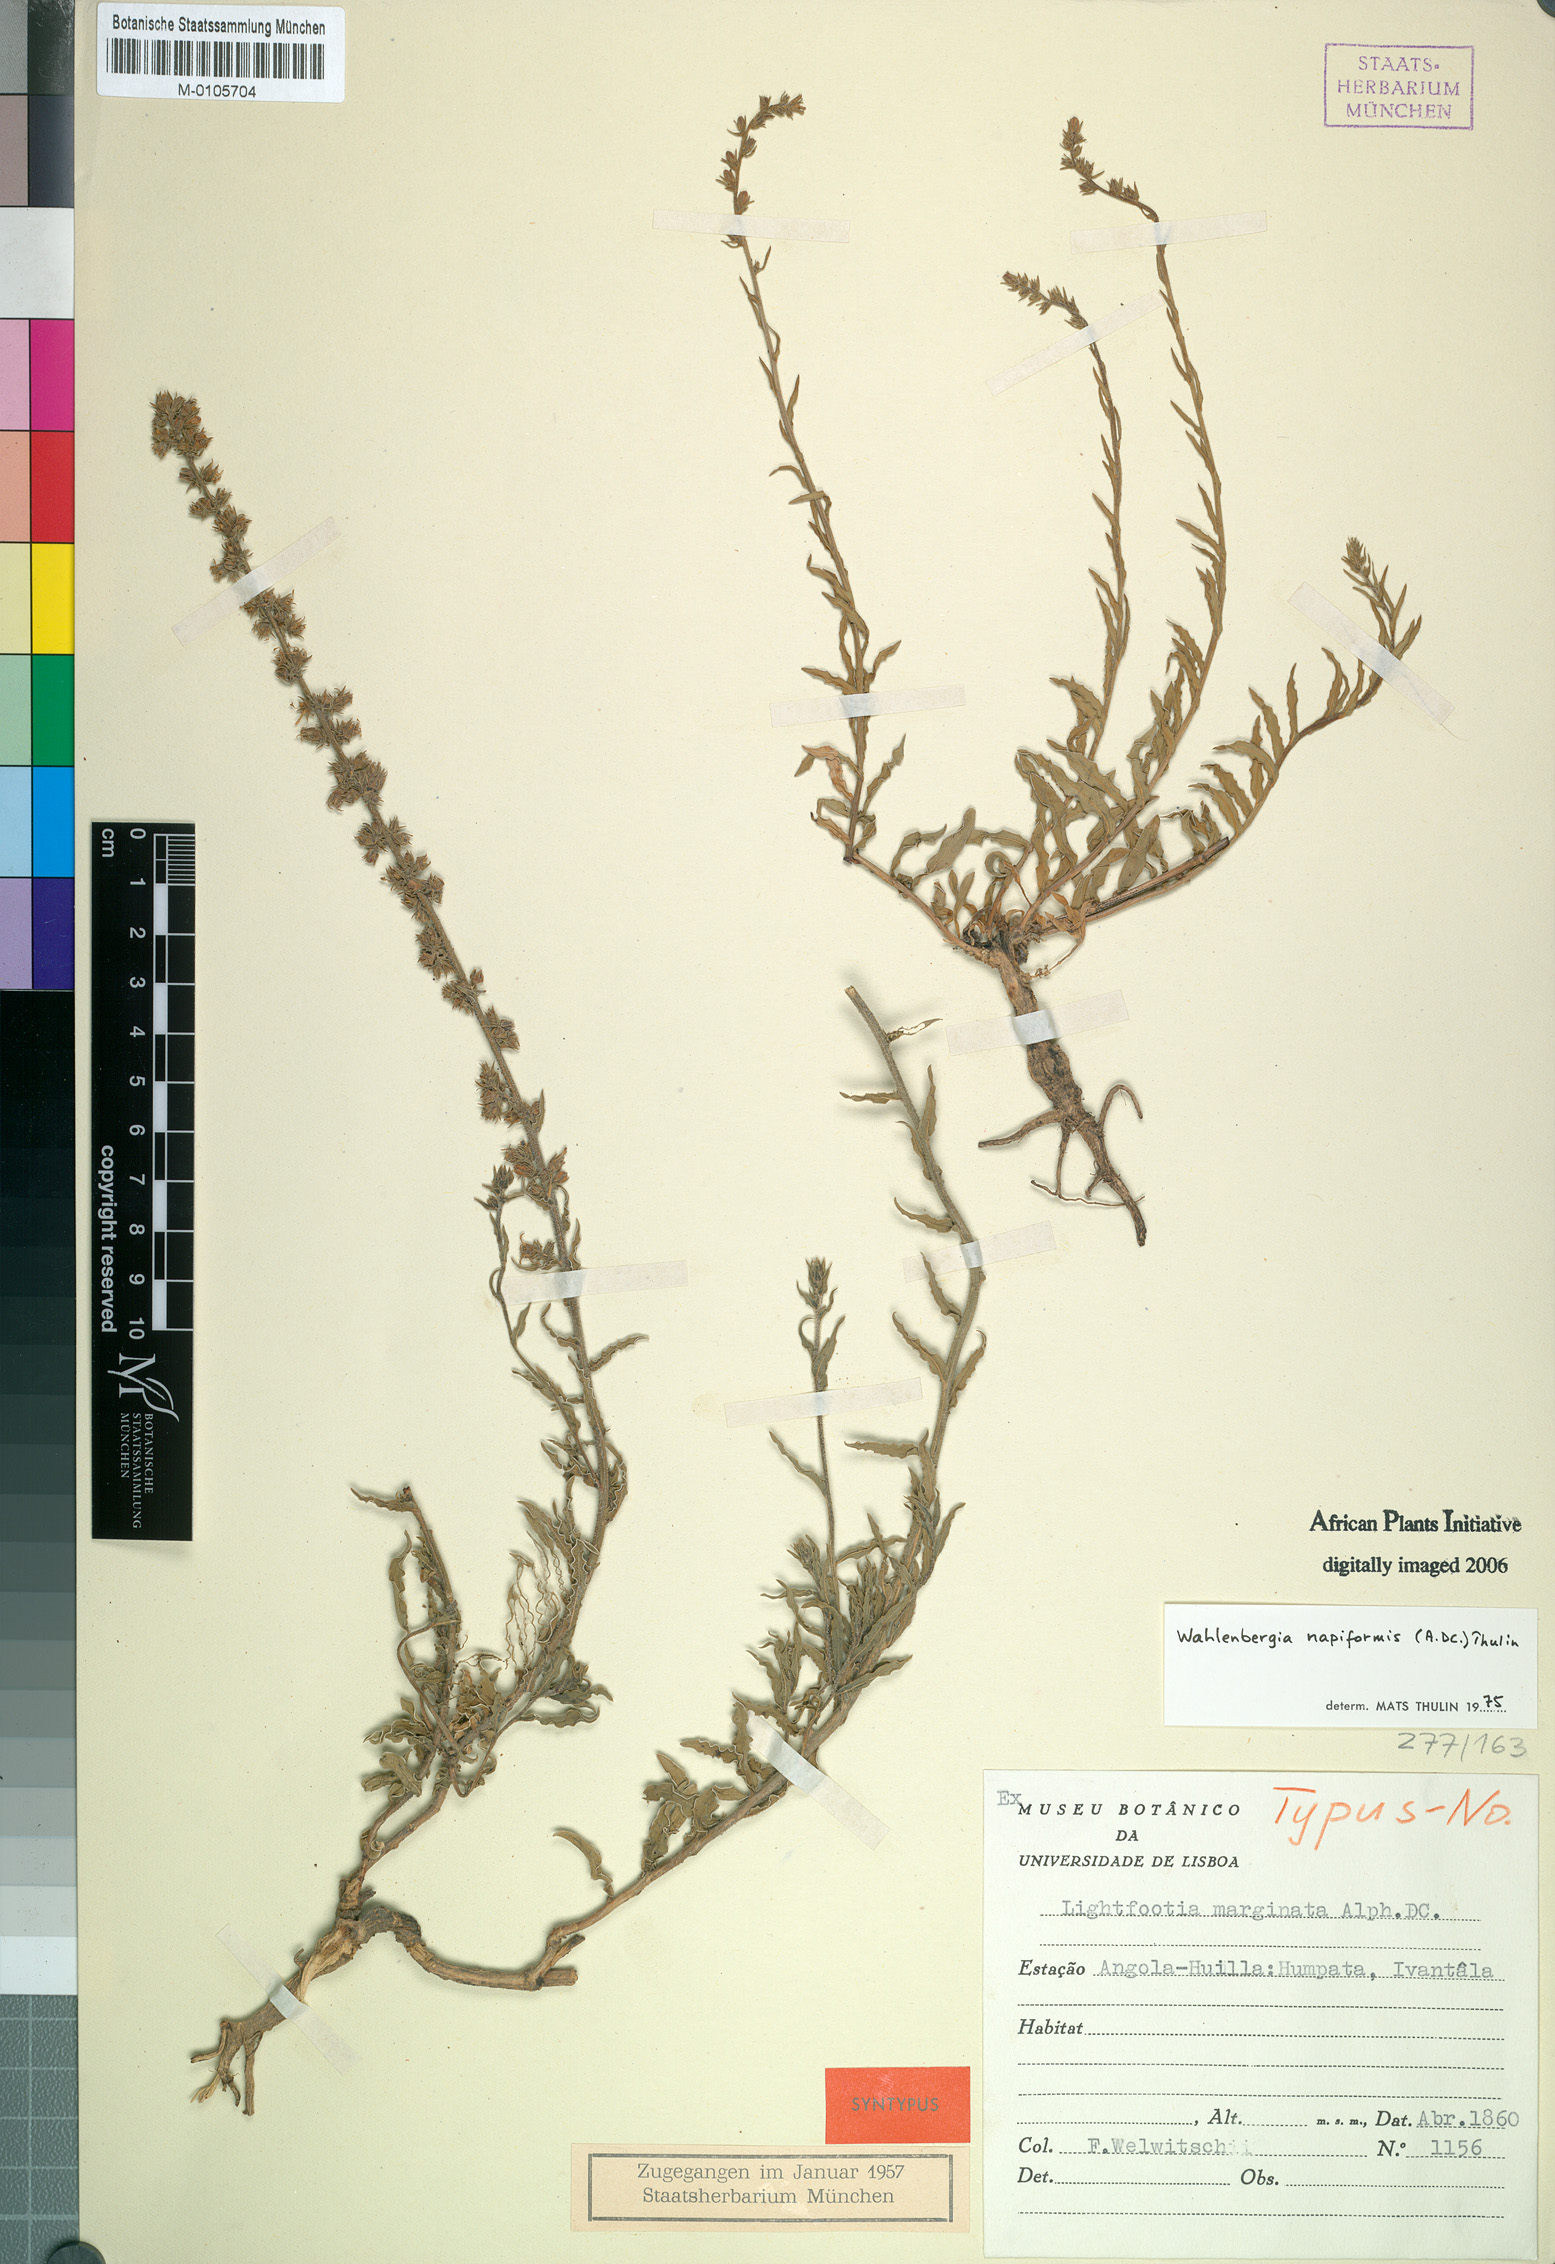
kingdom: Plantae
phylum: Tracheophyta
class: Magnoliopsida
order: Asterales
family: Campanulaceae
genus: Wahlenbergia
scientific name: Wahlenbergia napiformis
